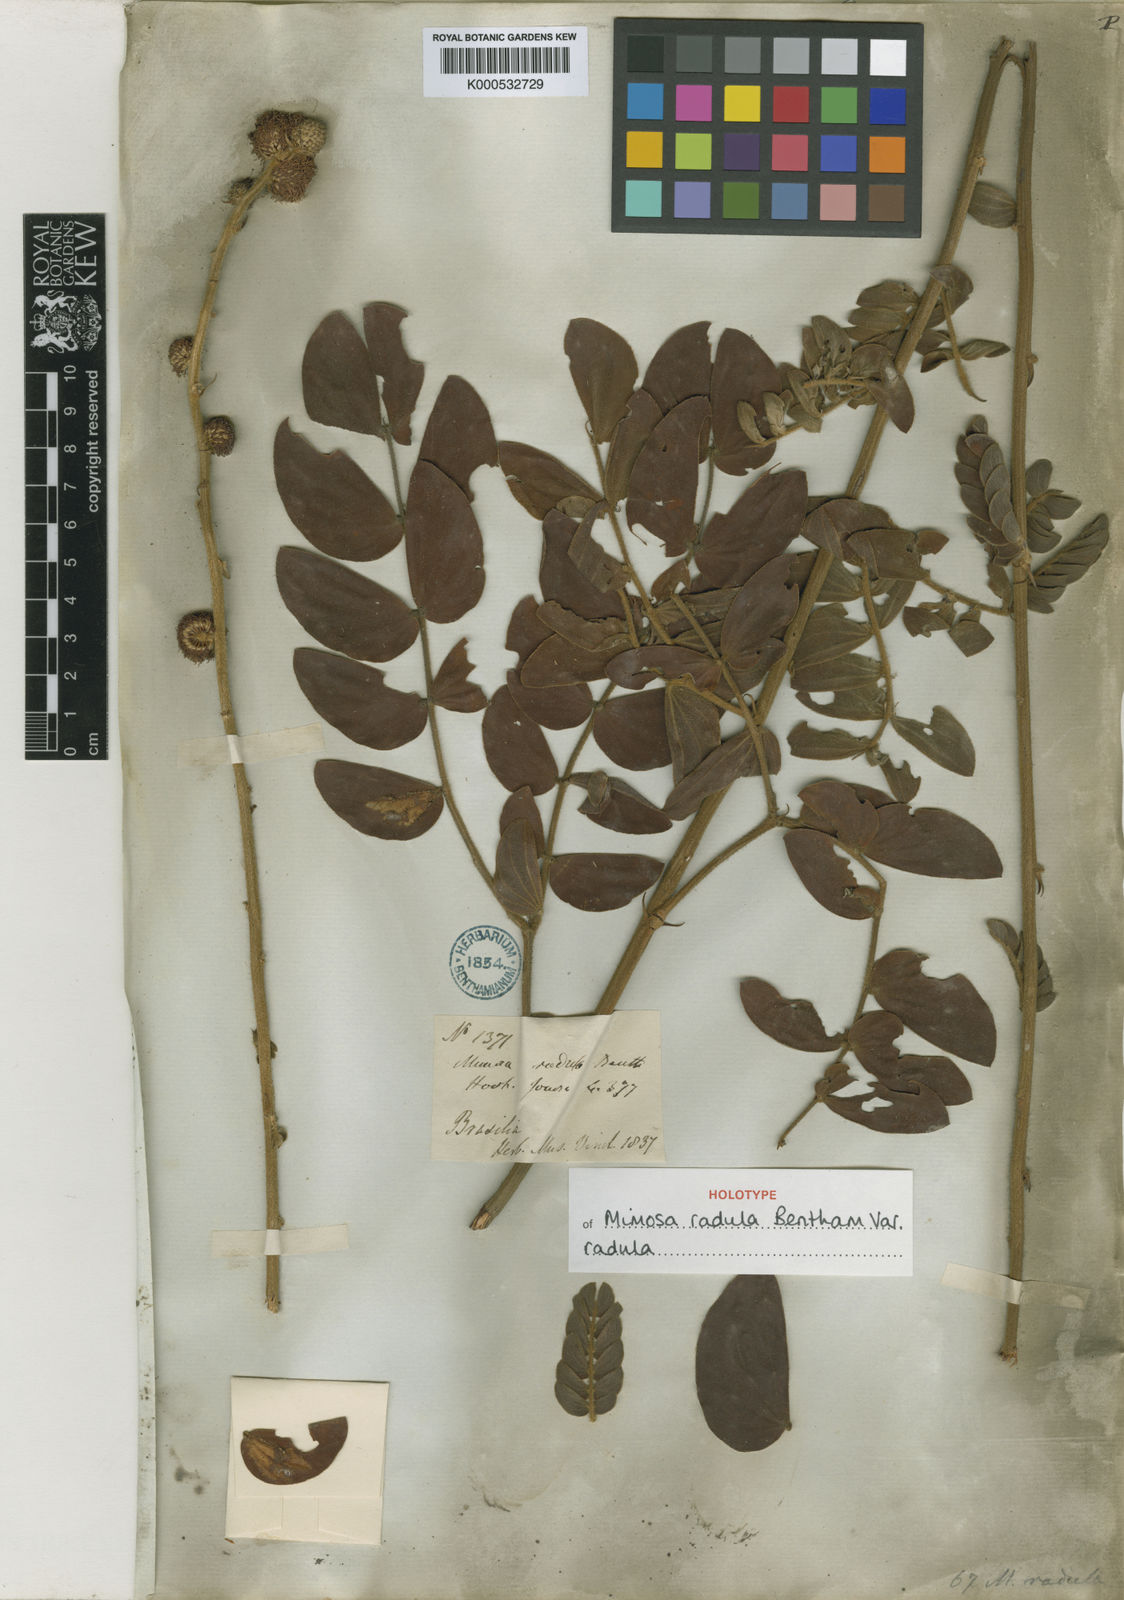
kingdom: Plantae
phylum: Tracheophyta
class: Magnoliopsida
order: Fabales
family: Fabaceae
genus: Mimosa
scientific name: Mimosa radula
